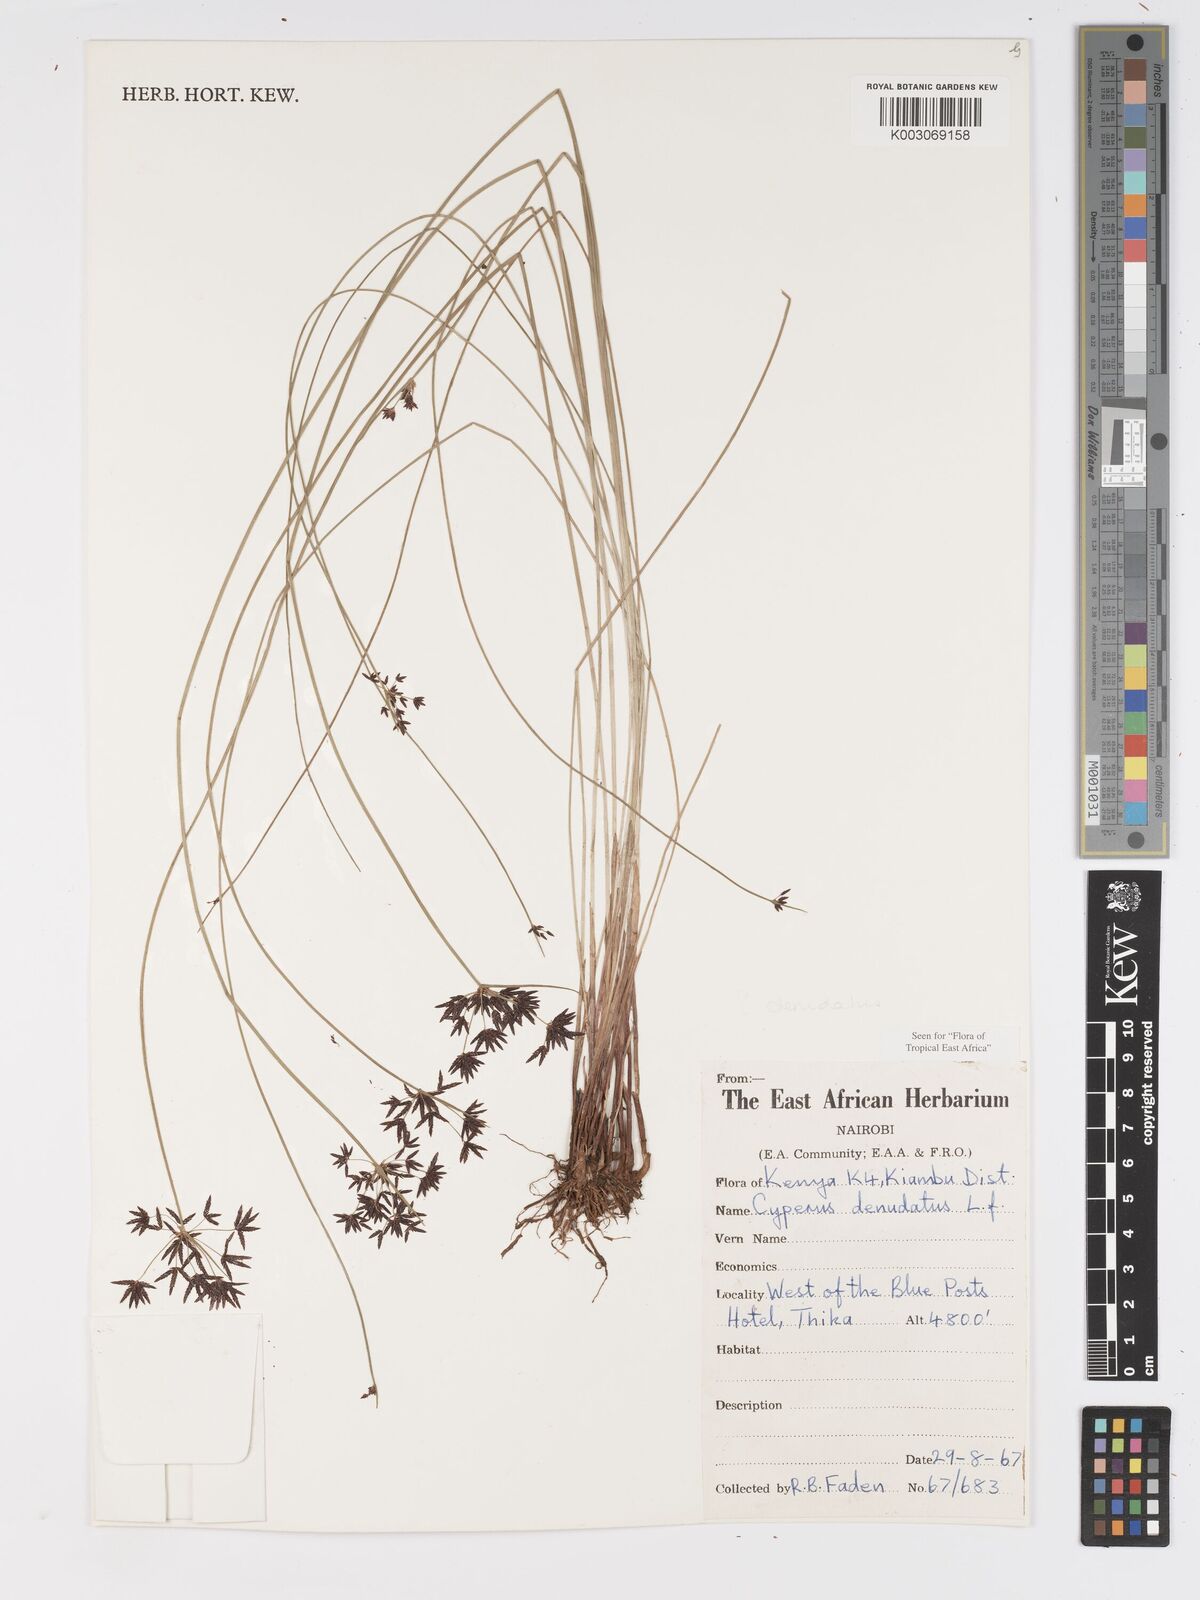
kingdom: Plantae
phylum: Tracheophyta
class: Liliopsida
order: Poales
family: Cyperaceae
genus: Cyperus
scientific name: Cyperus denudatus
